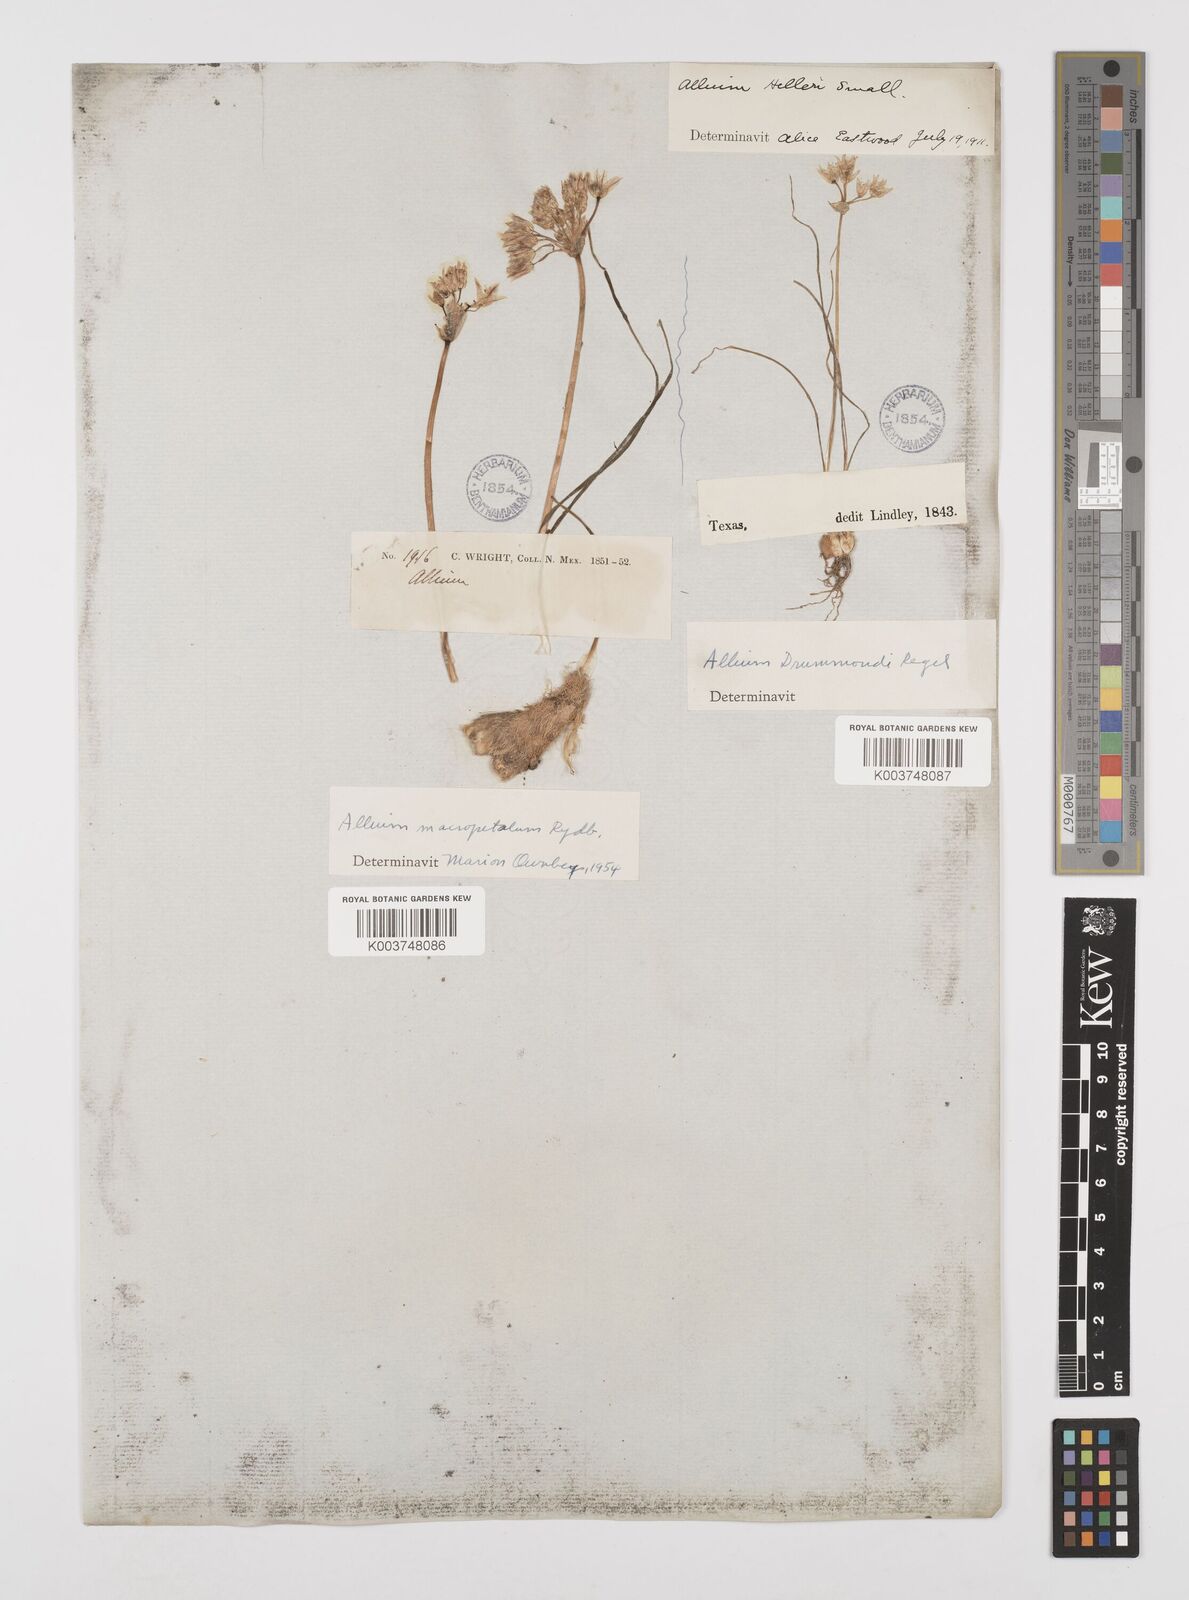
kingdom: Plantae
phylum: Tracheophyta
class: Liliopsida
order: Asparagales
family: Amaryllidaceae
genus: Allium
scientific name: Allium macropetalum
